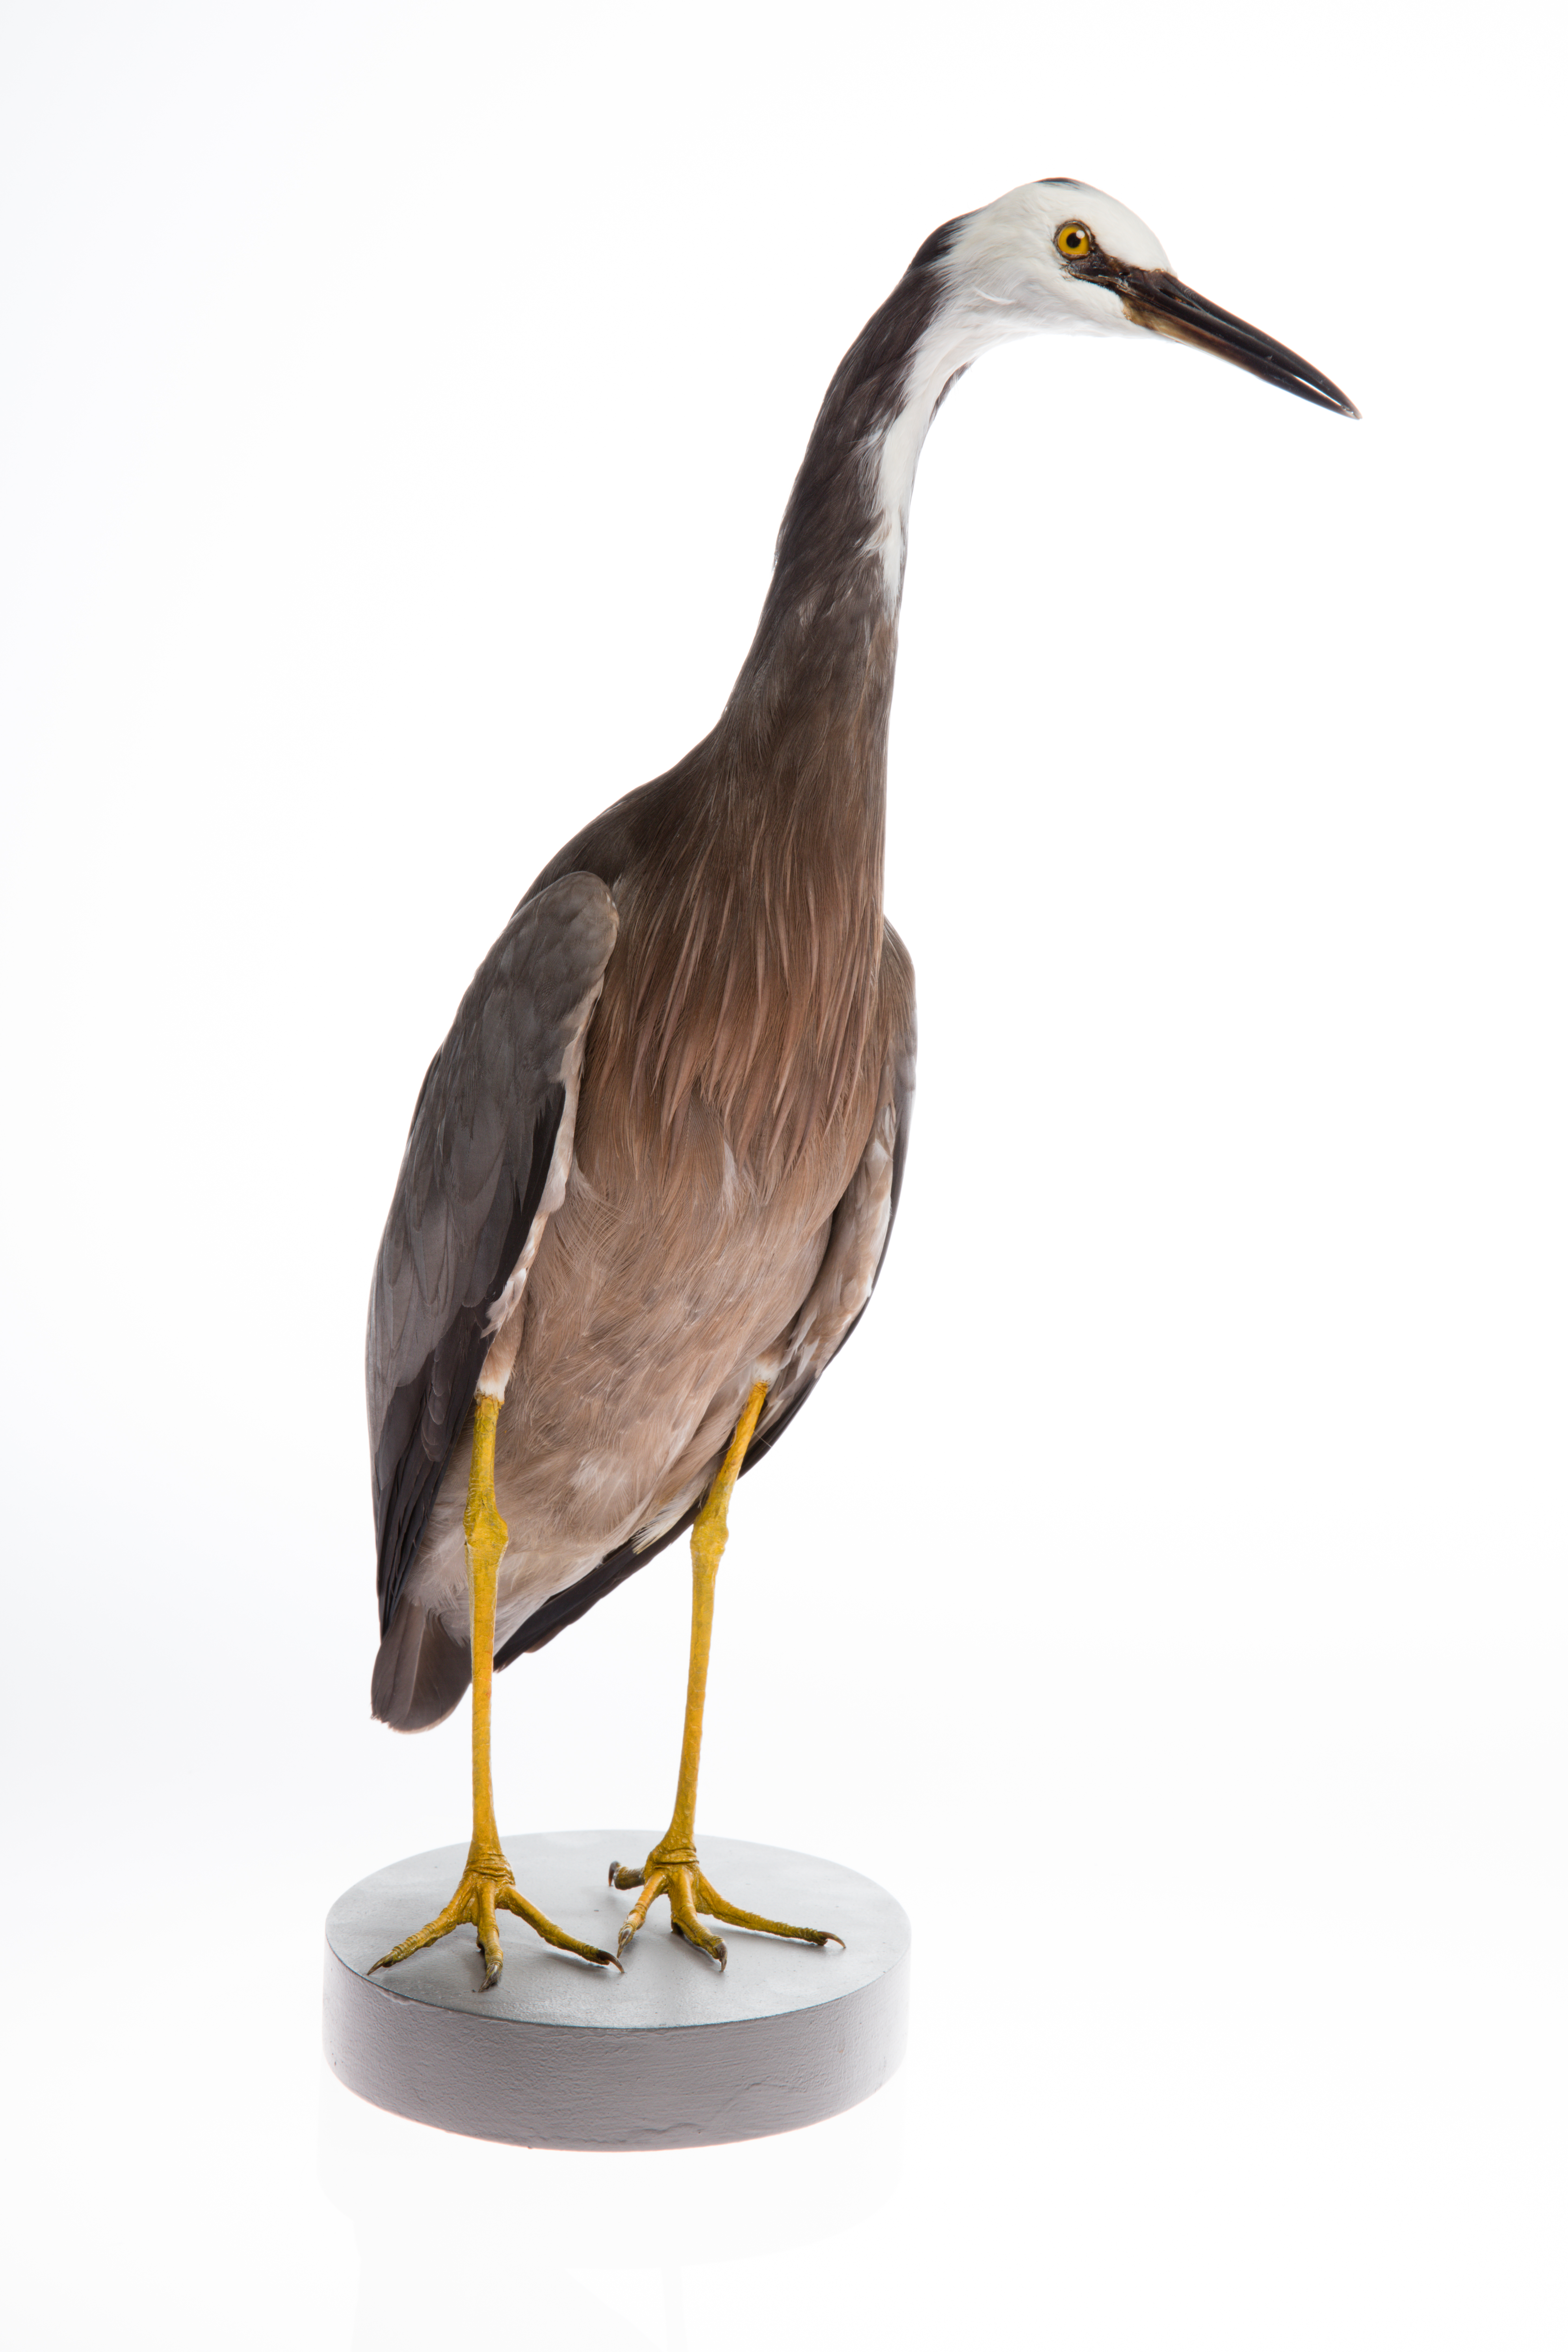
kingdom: Animalia
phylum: Chordata
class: Aves
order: Pelecaniformes
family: Ardeidae
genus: Egretta
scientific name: Egretta novaehollandiae
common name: White-faced heron
